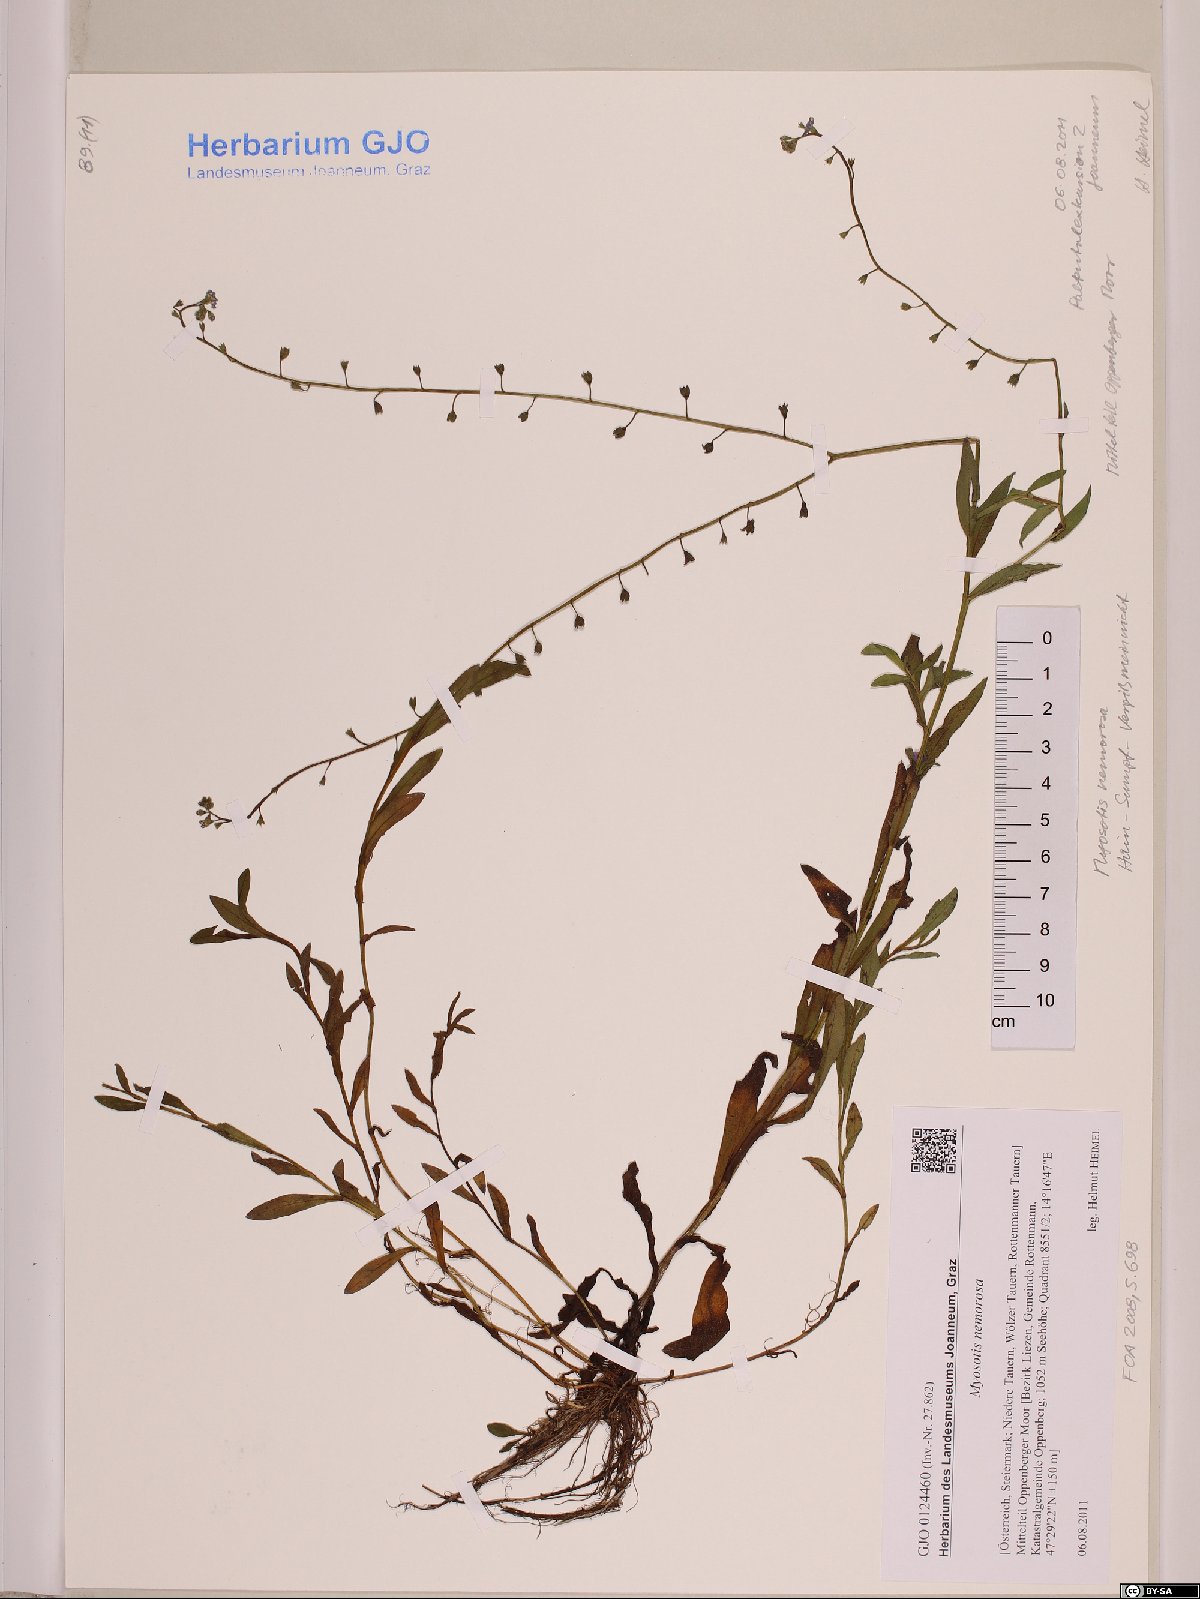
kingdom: Plantae
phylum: Tracheophyta
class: Magnoliopsida
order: Boraginales
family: Boraginaceae
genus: Myosotis
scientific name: Myosotis nemorosa
